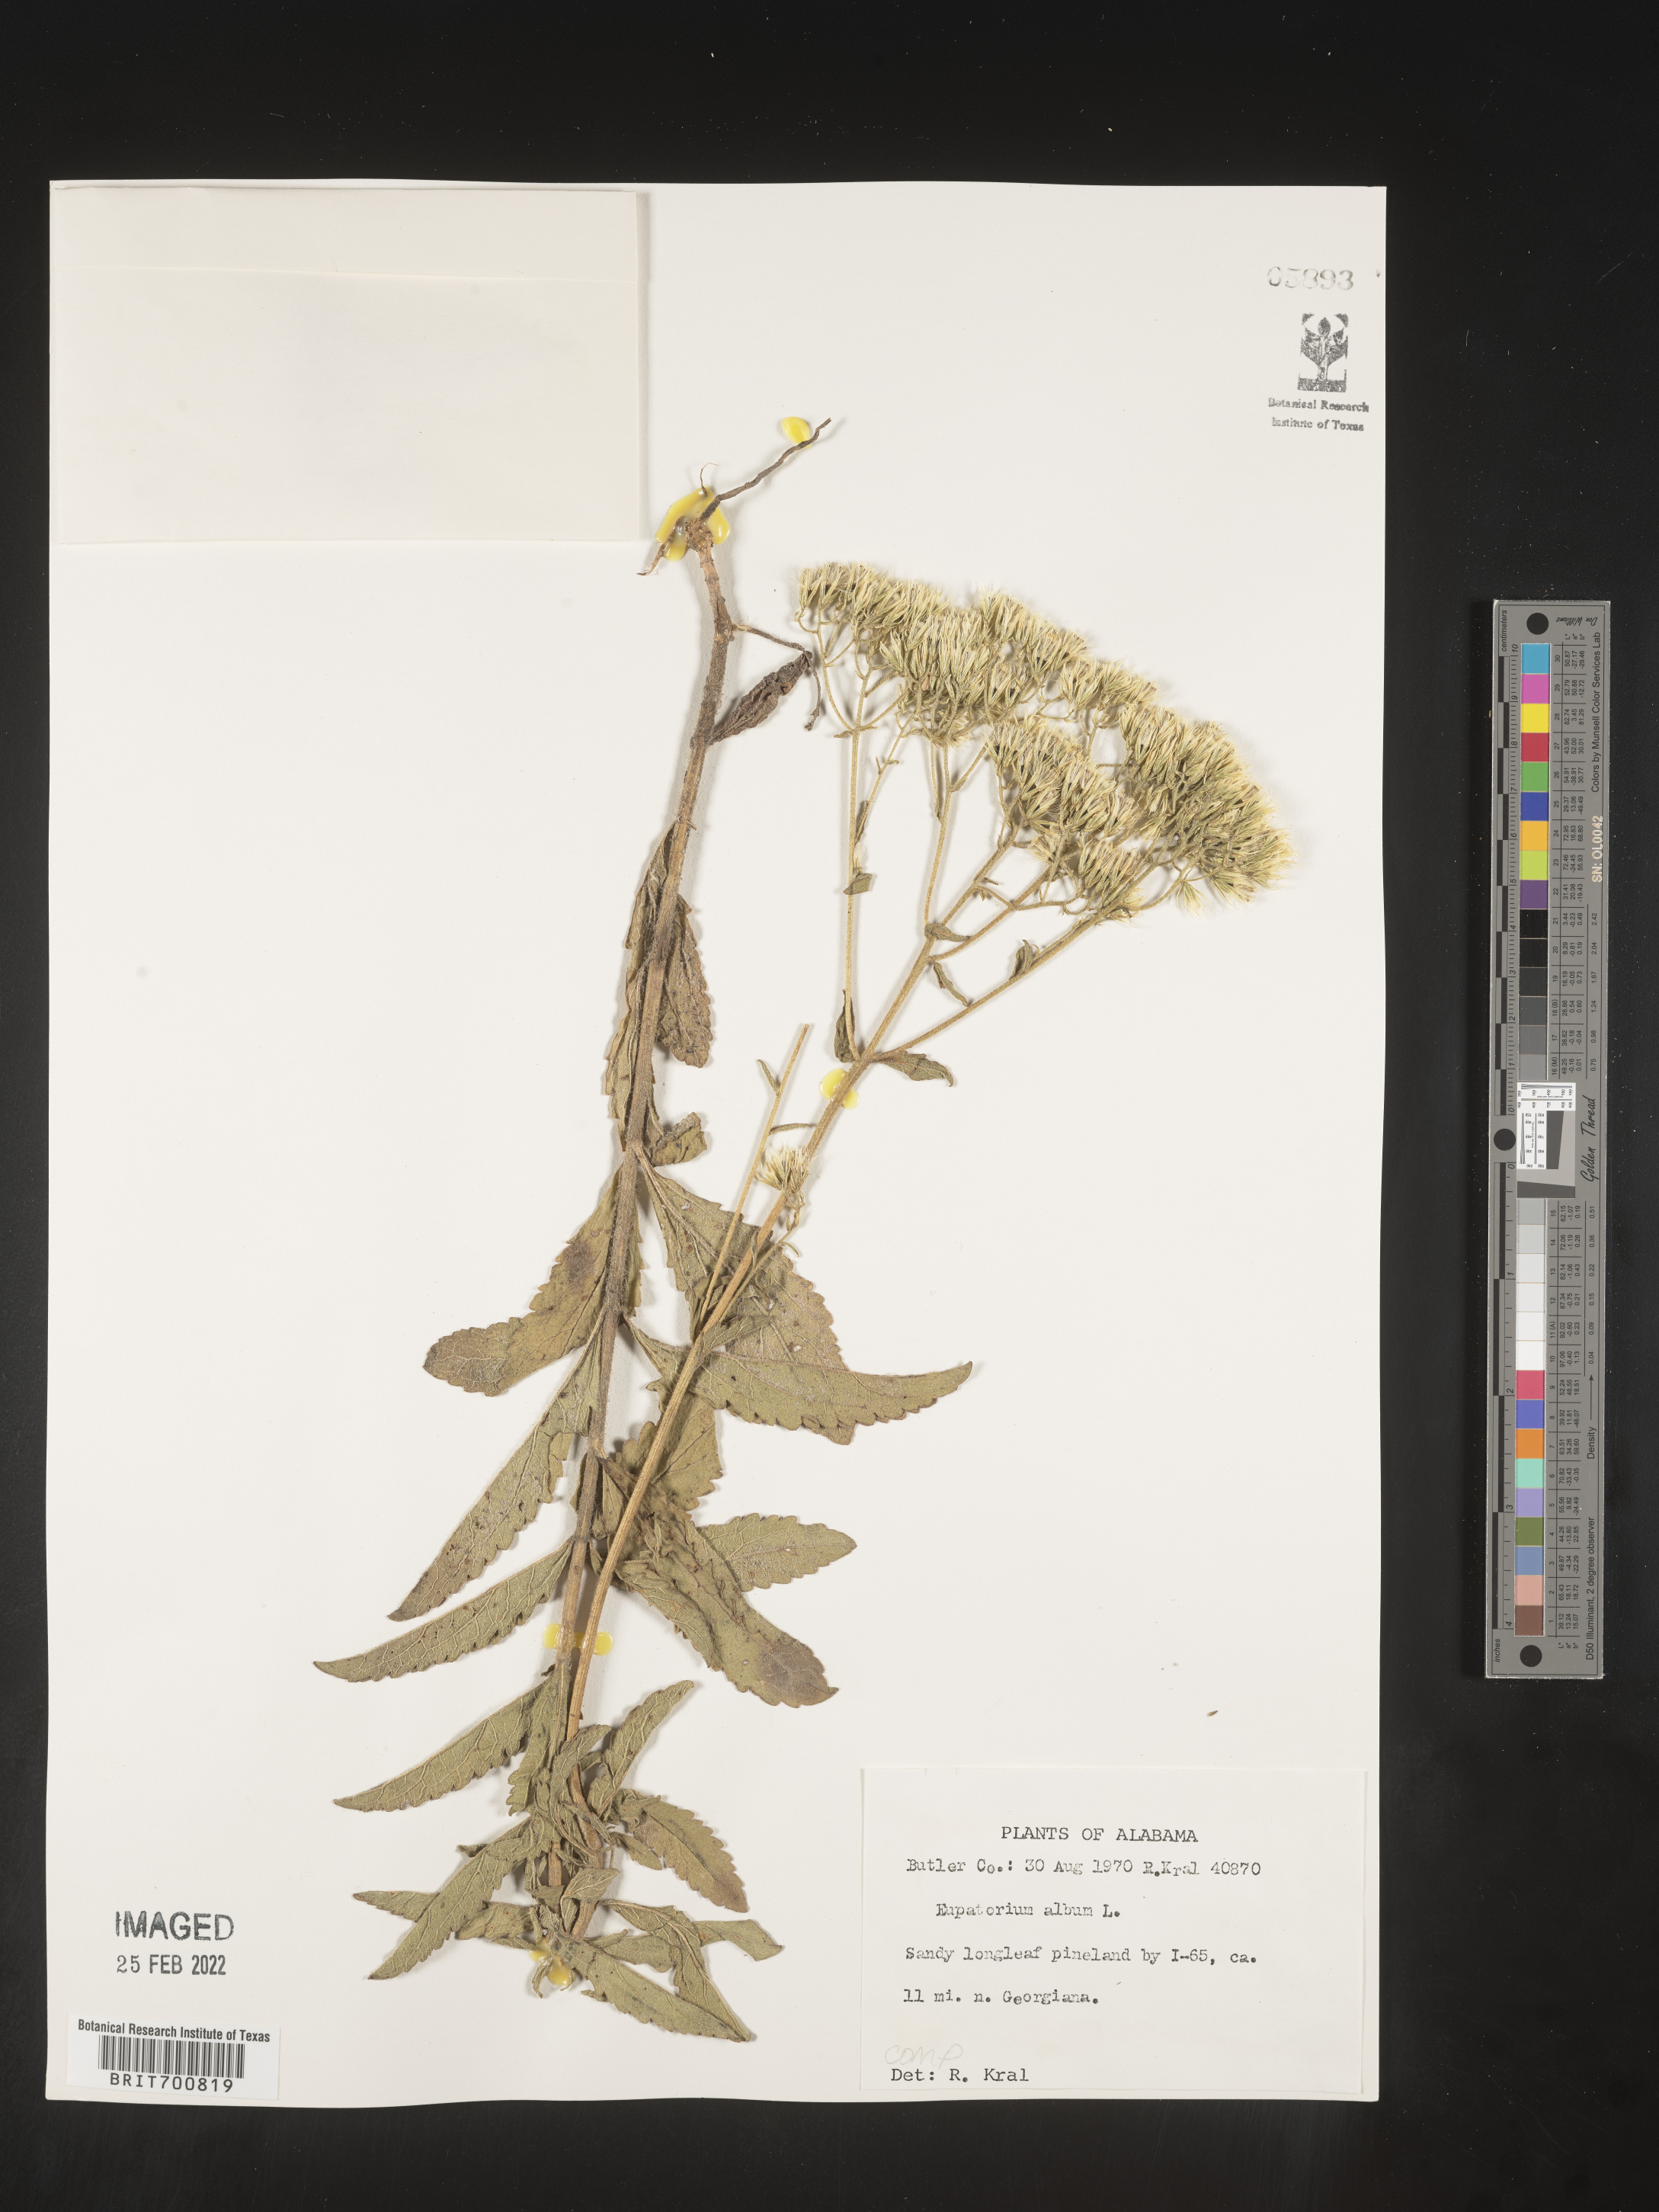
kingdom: Plantae
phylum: Tracheophyta
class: Magnoliopsida
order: Asterales
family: Asteraceae
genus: Eupatorium
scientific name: Eupatorium album
